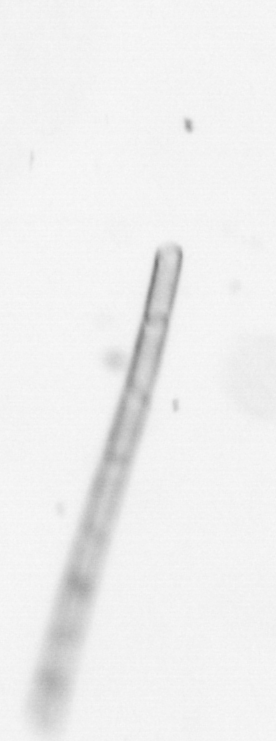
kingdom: Chromista
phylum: Ochrophyta
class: Bacillariophyceae
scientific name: Bacillariophyceae
